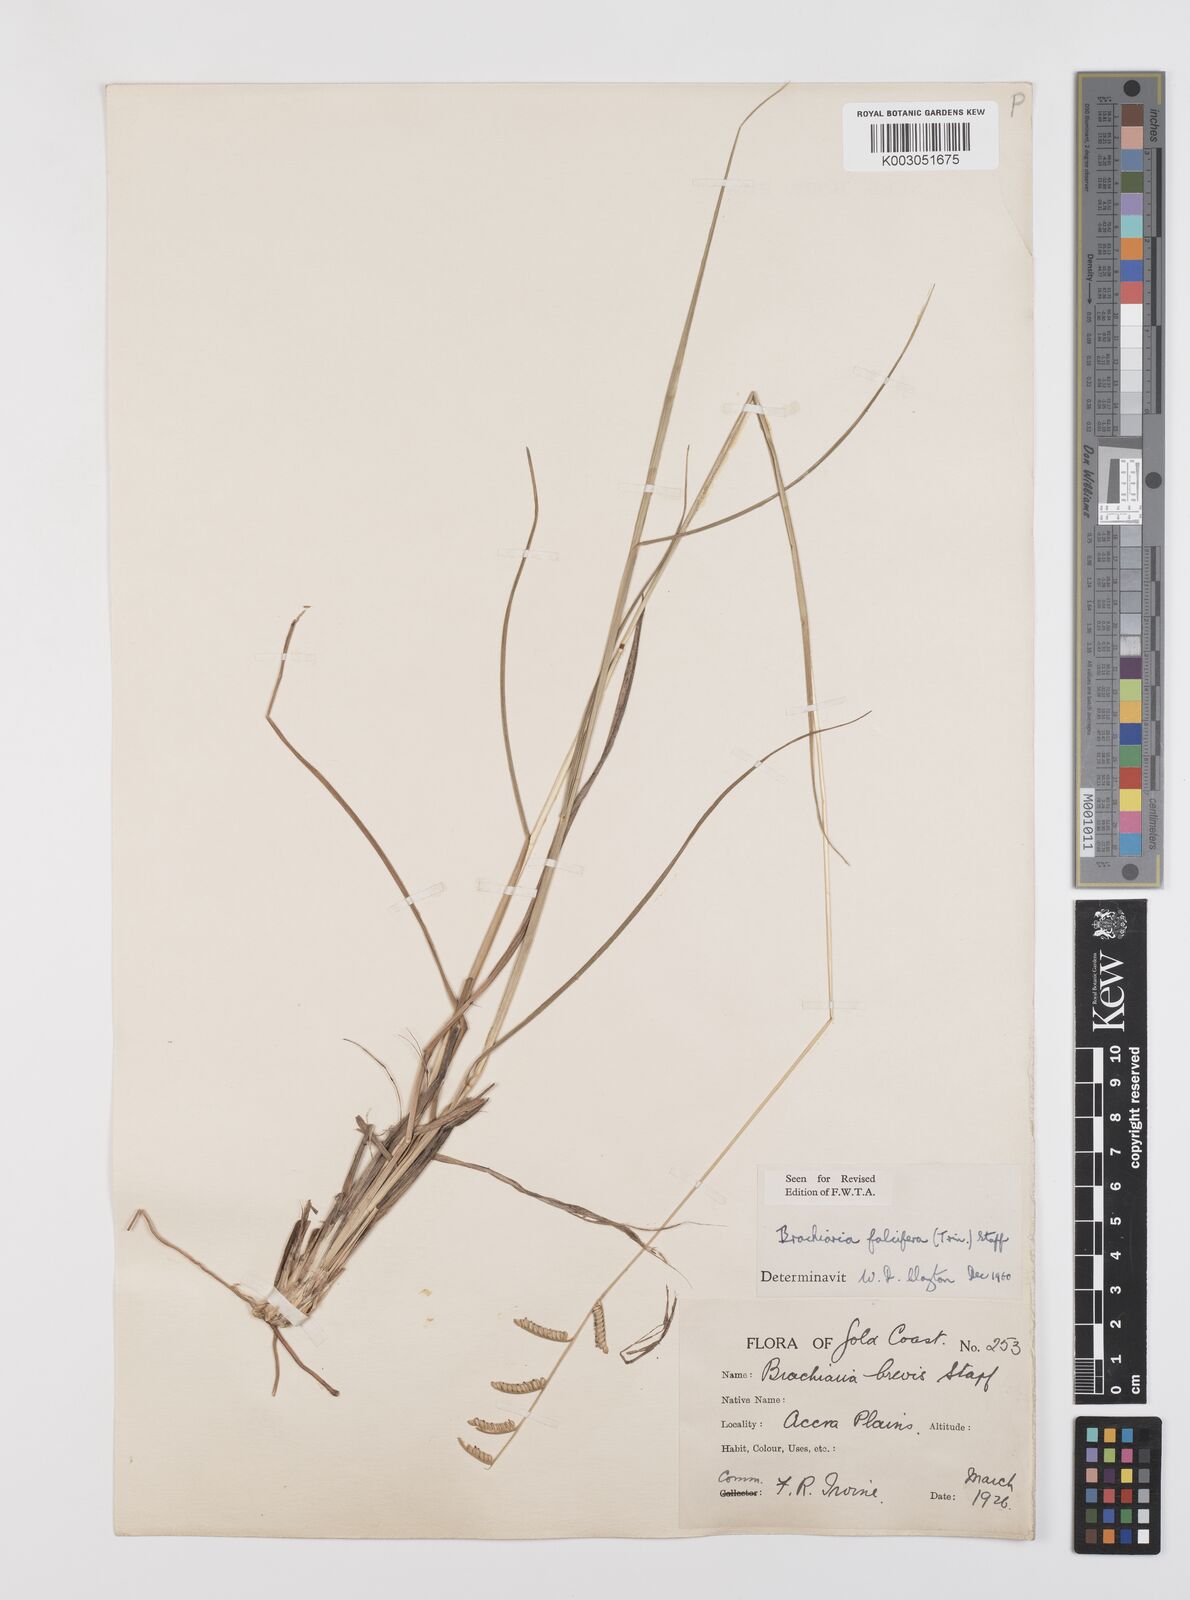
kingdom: Plantae
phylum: Tracheophyta
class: Liliopsida
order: Poales
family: Poaceae
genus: Urochloa
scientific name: Urochloa falcifera
